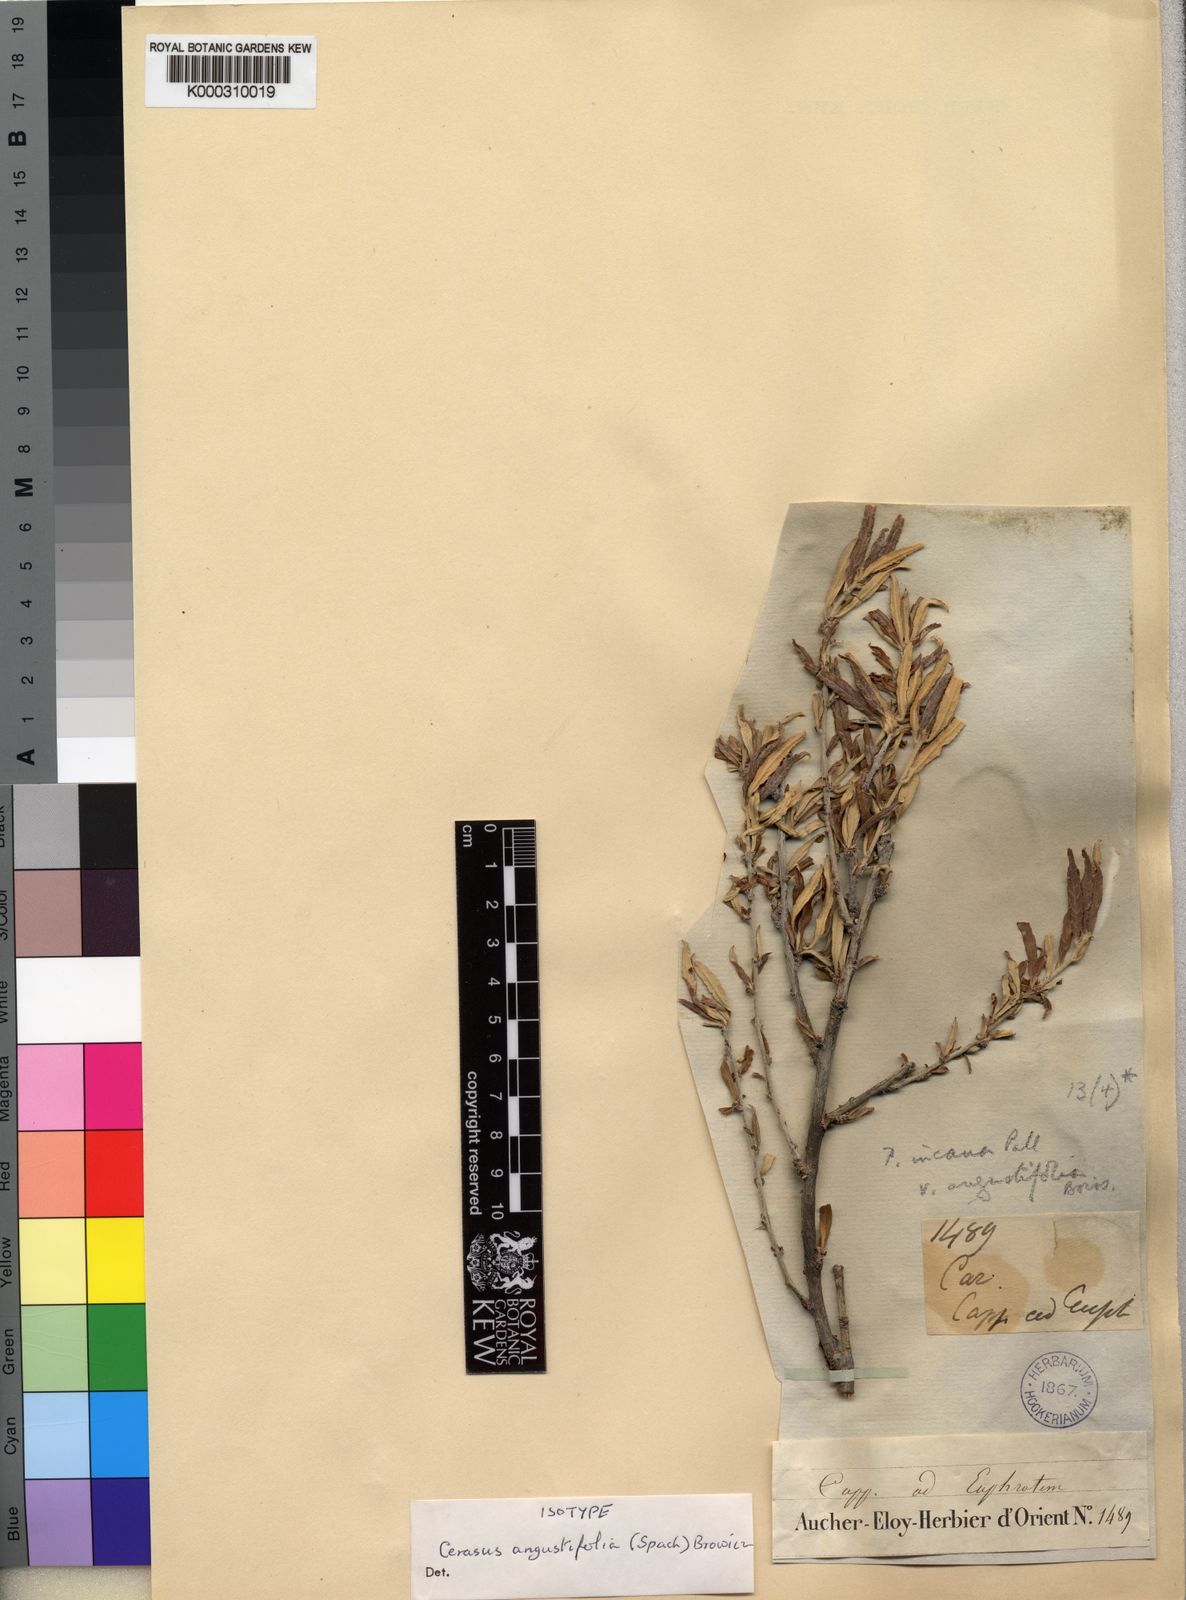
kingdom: Plantae
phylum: Tracheophyta
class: Magnoliopsida
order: Rosales
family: Rosaceae
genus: Prunus
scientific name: Prunus incana
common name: Willow cherry
